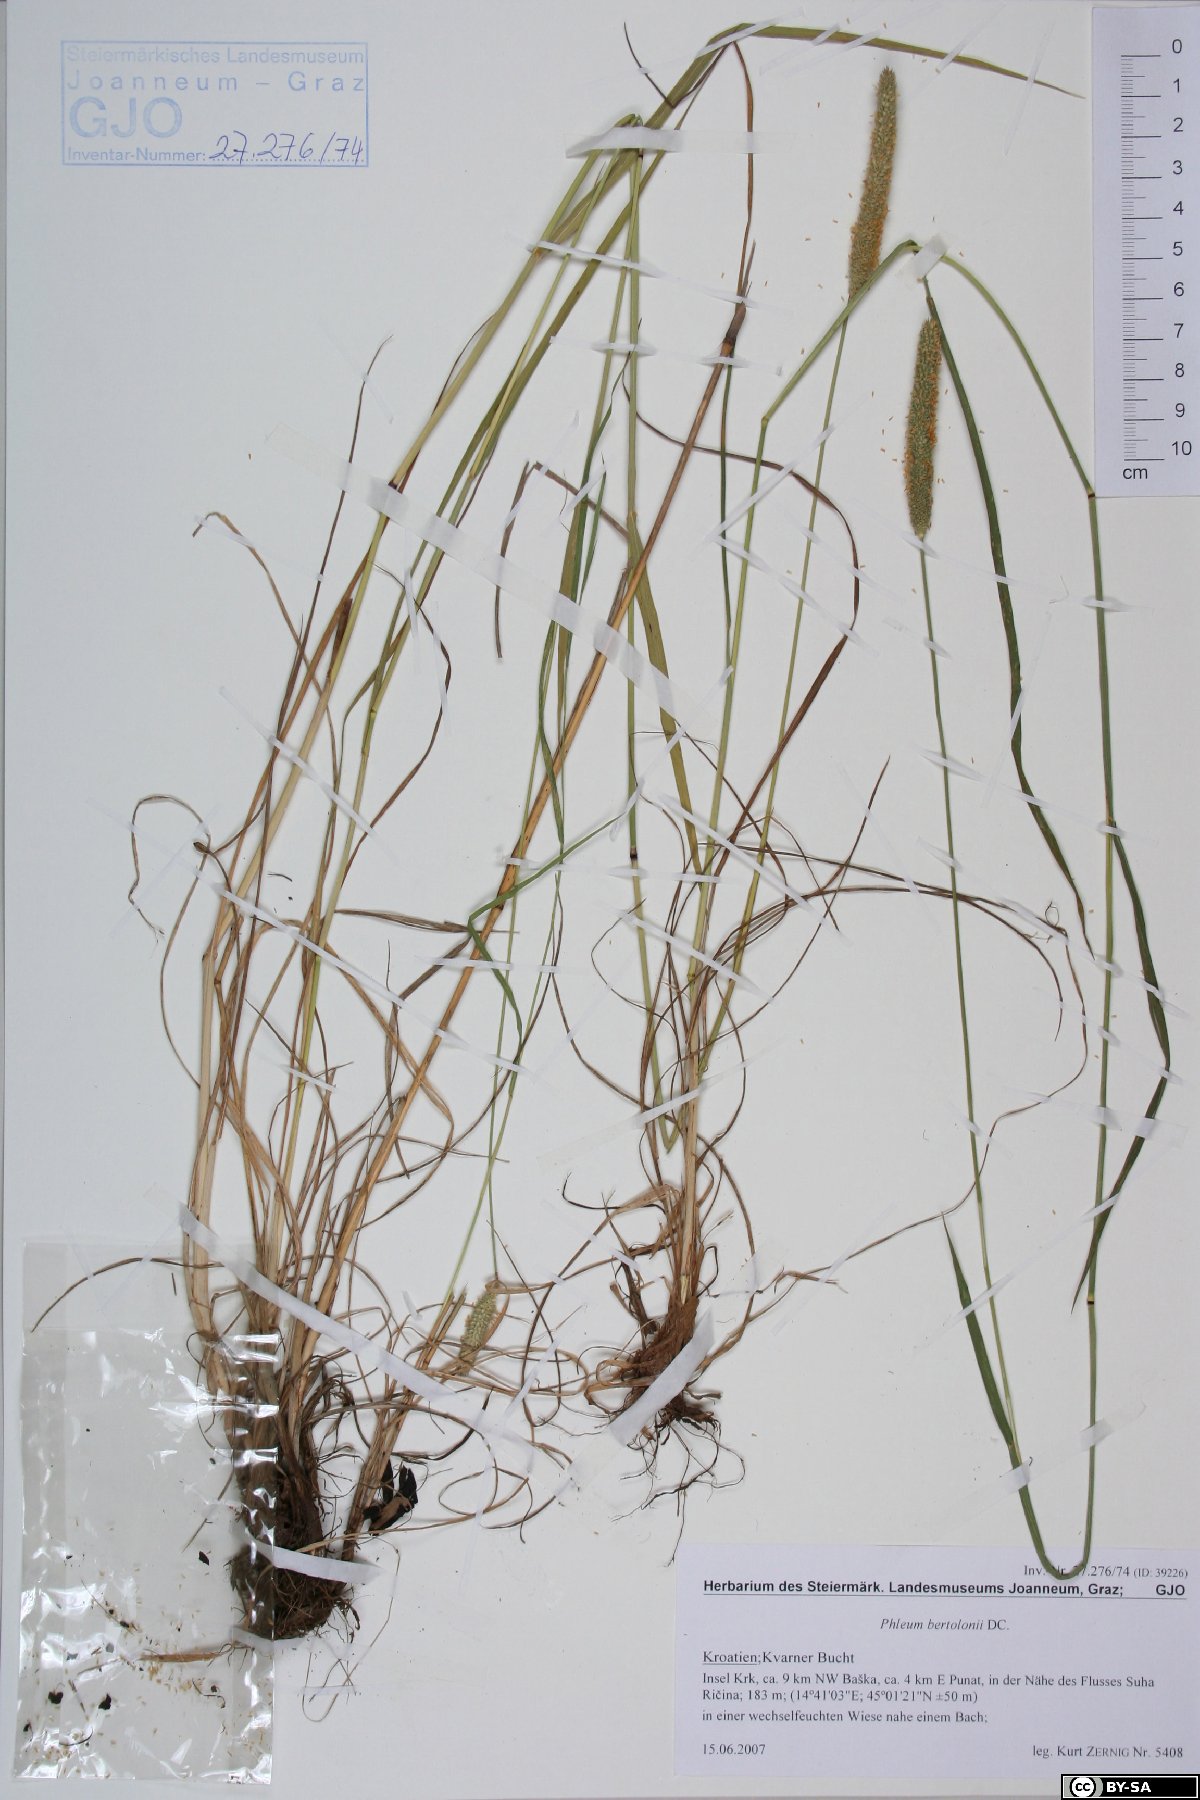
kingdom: Plantae
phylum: Tracheophyta
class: Liliopsida
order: Poales
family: Poaceae
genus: Phleum
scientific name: Phleum bertolonii
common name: Smaller cat's-tail
